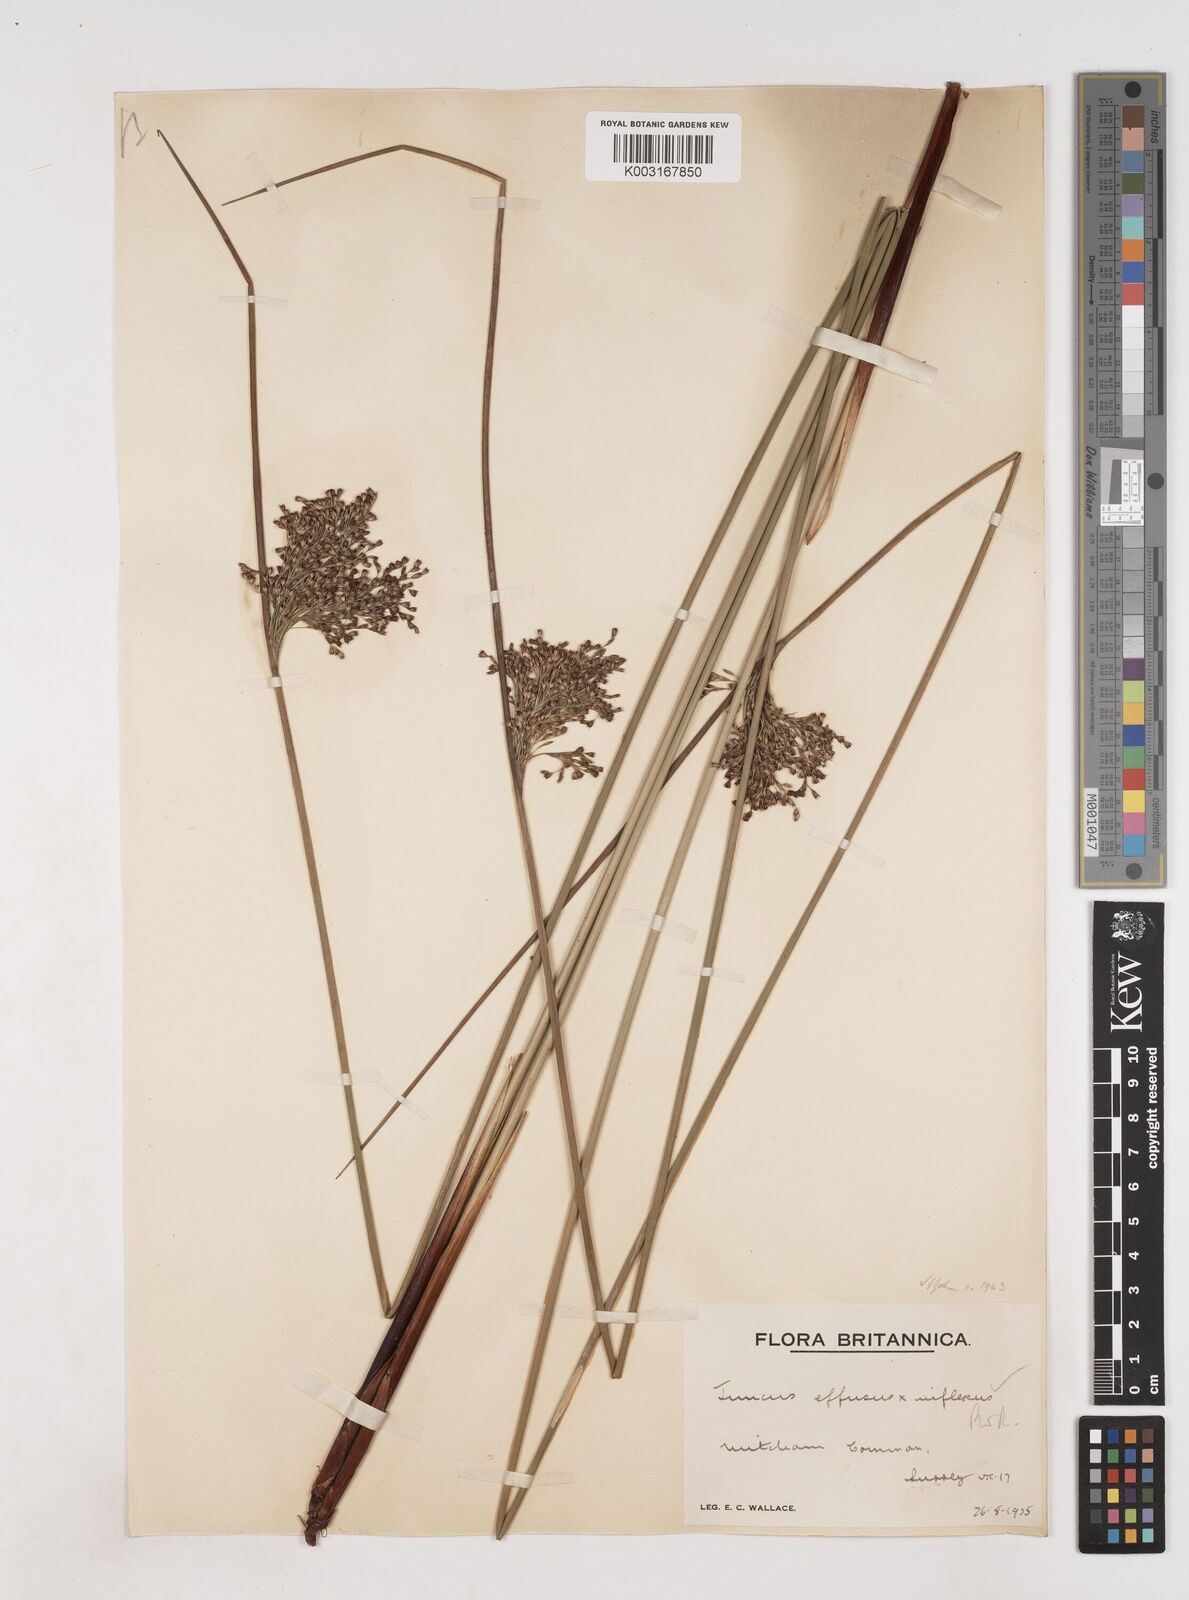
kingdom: Plantae
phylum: Tracheophyta
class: Liliopsida
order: Poales
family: Juncaceae
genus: Juncus
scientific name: Juncus effusus
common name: Soft rush
